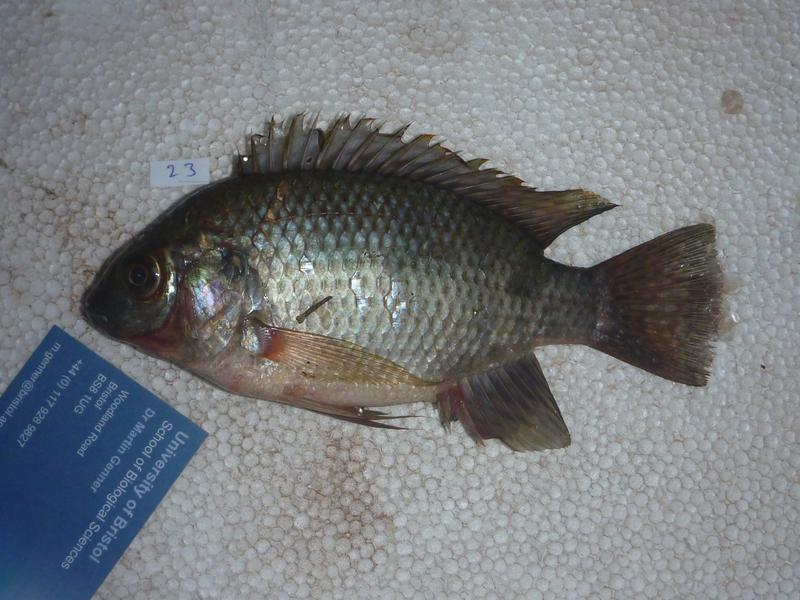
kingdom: Animalia
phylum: Chordata
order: Perciformes
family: Cichlidae
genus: Oreochromis
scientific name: Oreochromis upembae
